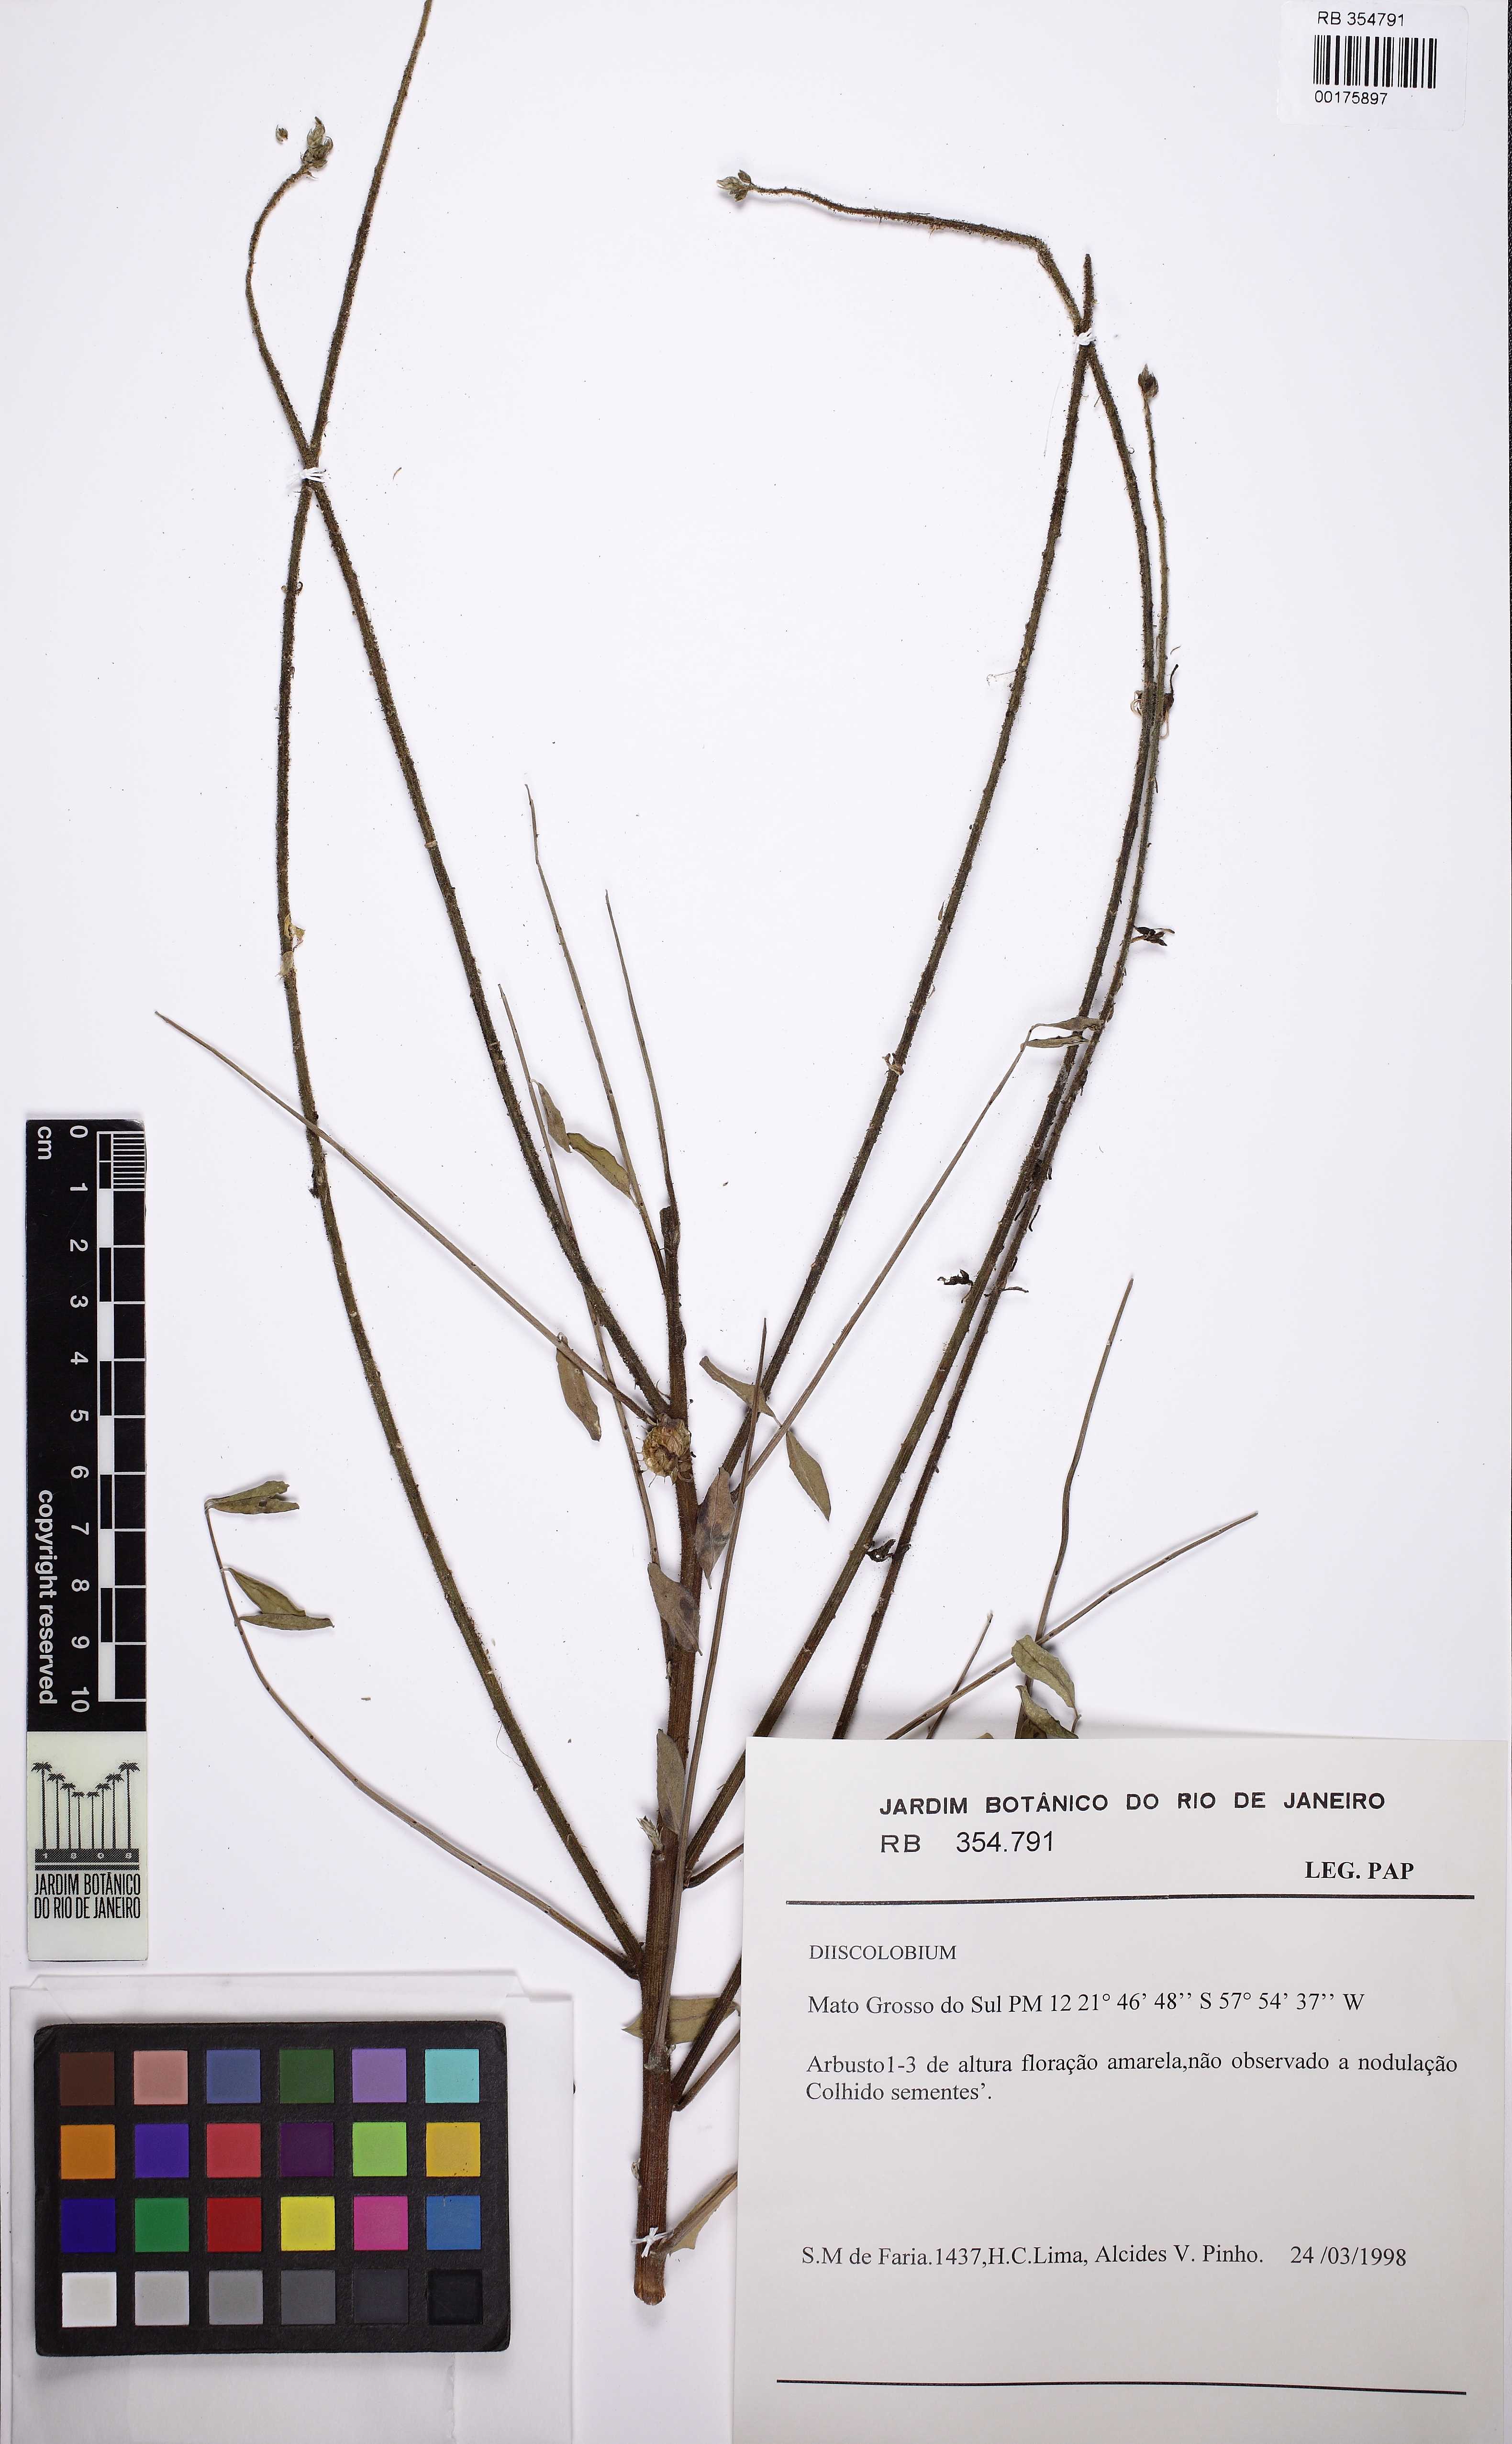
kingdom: Plantae
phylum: Tracheophyta
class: Magnoliopsida
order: Fabales
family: Fabaceae
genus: Discolobium
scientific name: Discolobium pulchellum
